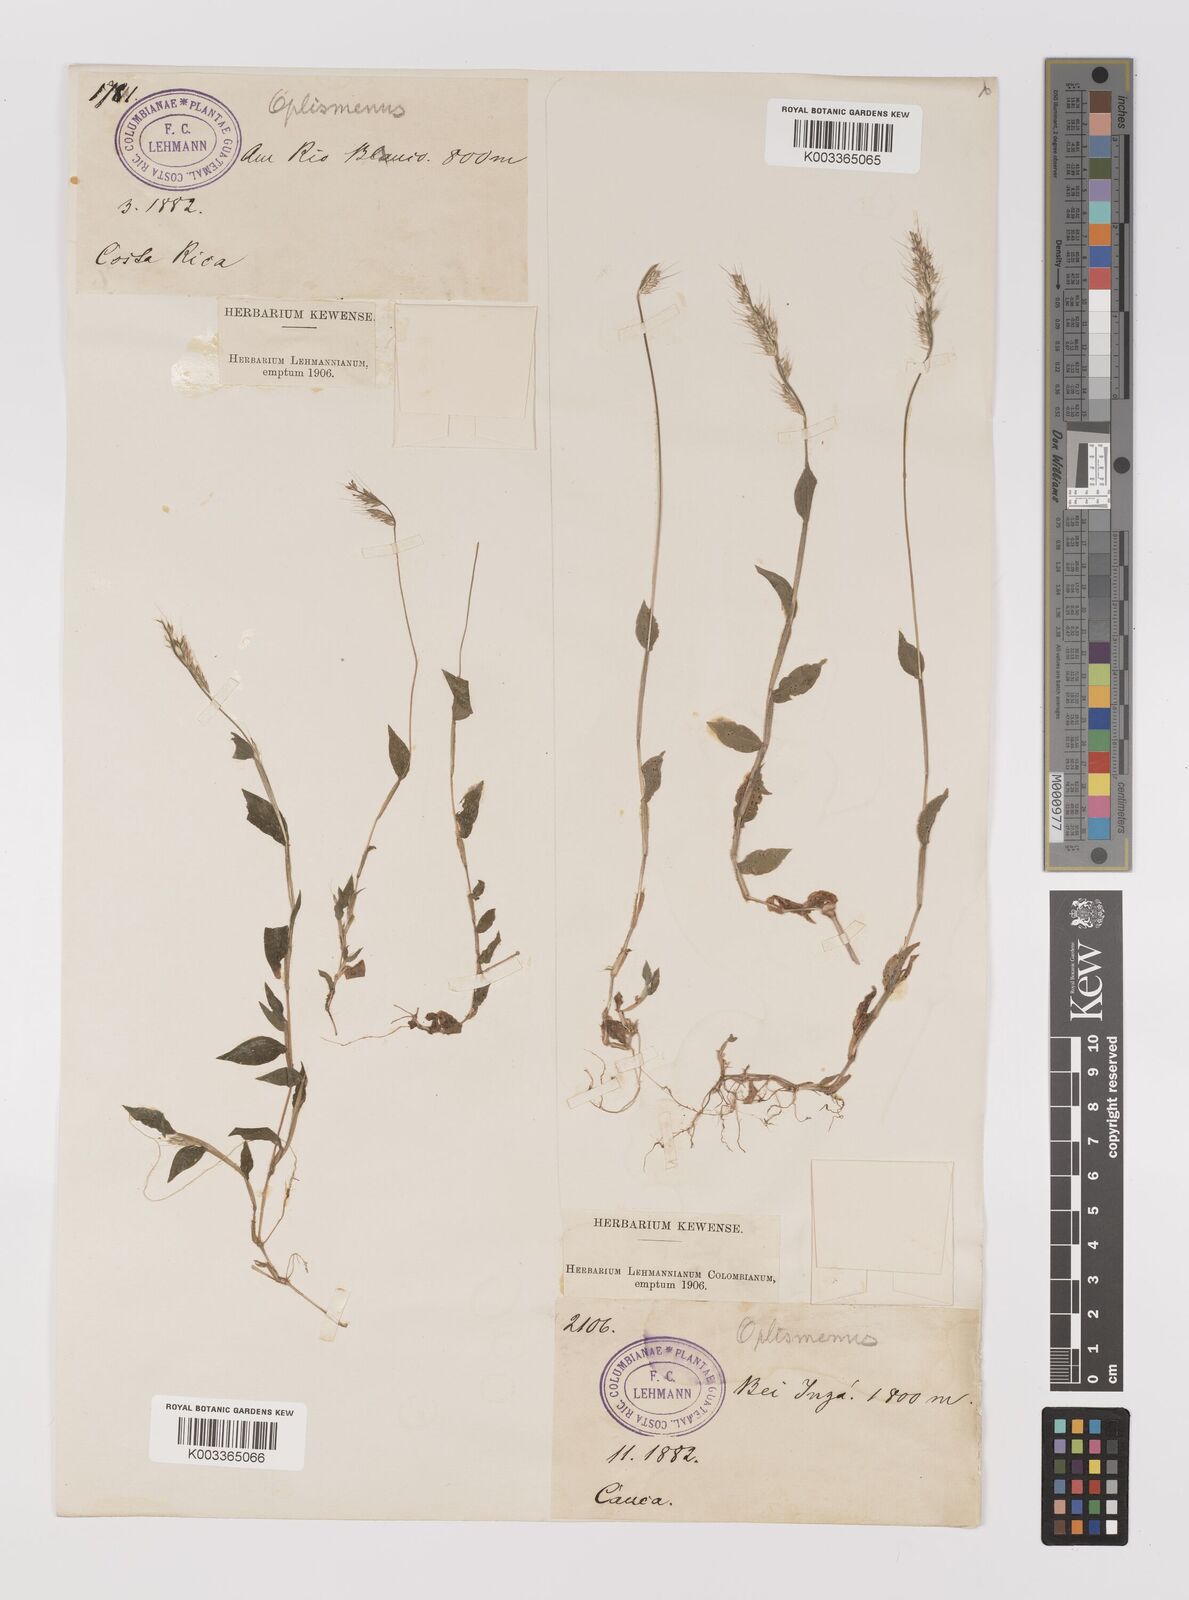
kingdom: Plantae
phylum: Tracheophyta
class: Liliopsida
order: Poales
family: Poaceae
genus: Oplismenus
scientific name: Oplismenus burmanni
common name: Burmann's basketgrass
